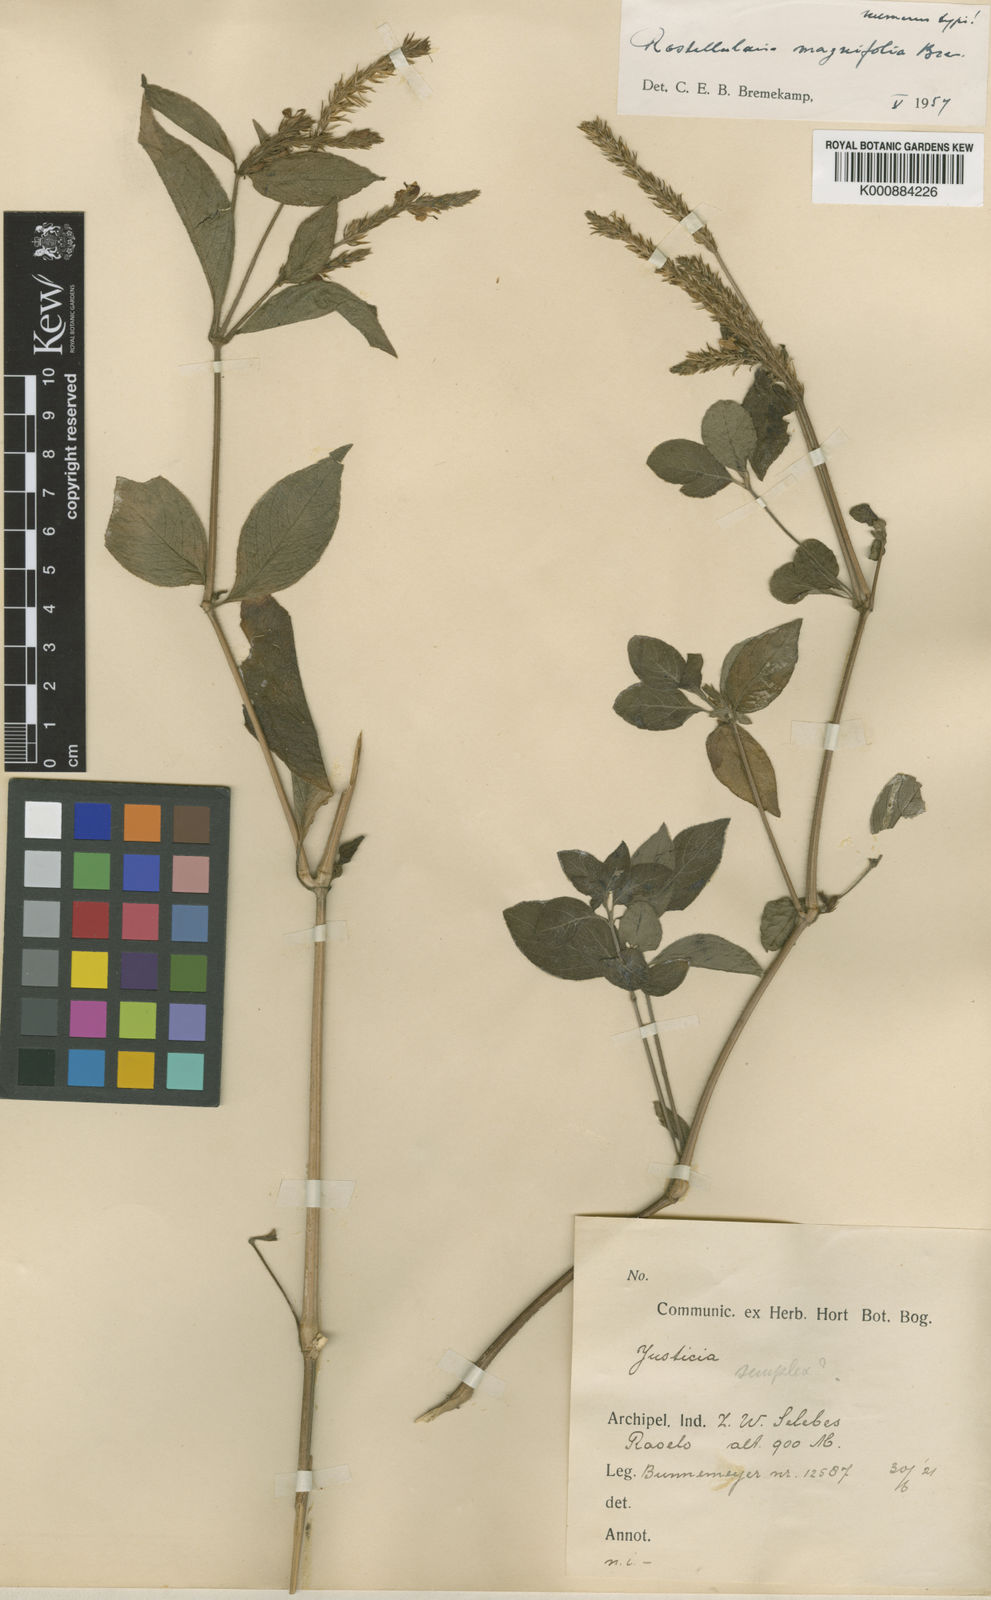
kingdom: Plantae
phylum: Tracheophyta
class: Magnoliopsida
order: Lamiales
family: Acanthaceae
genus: Justicia
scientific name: Justicia
